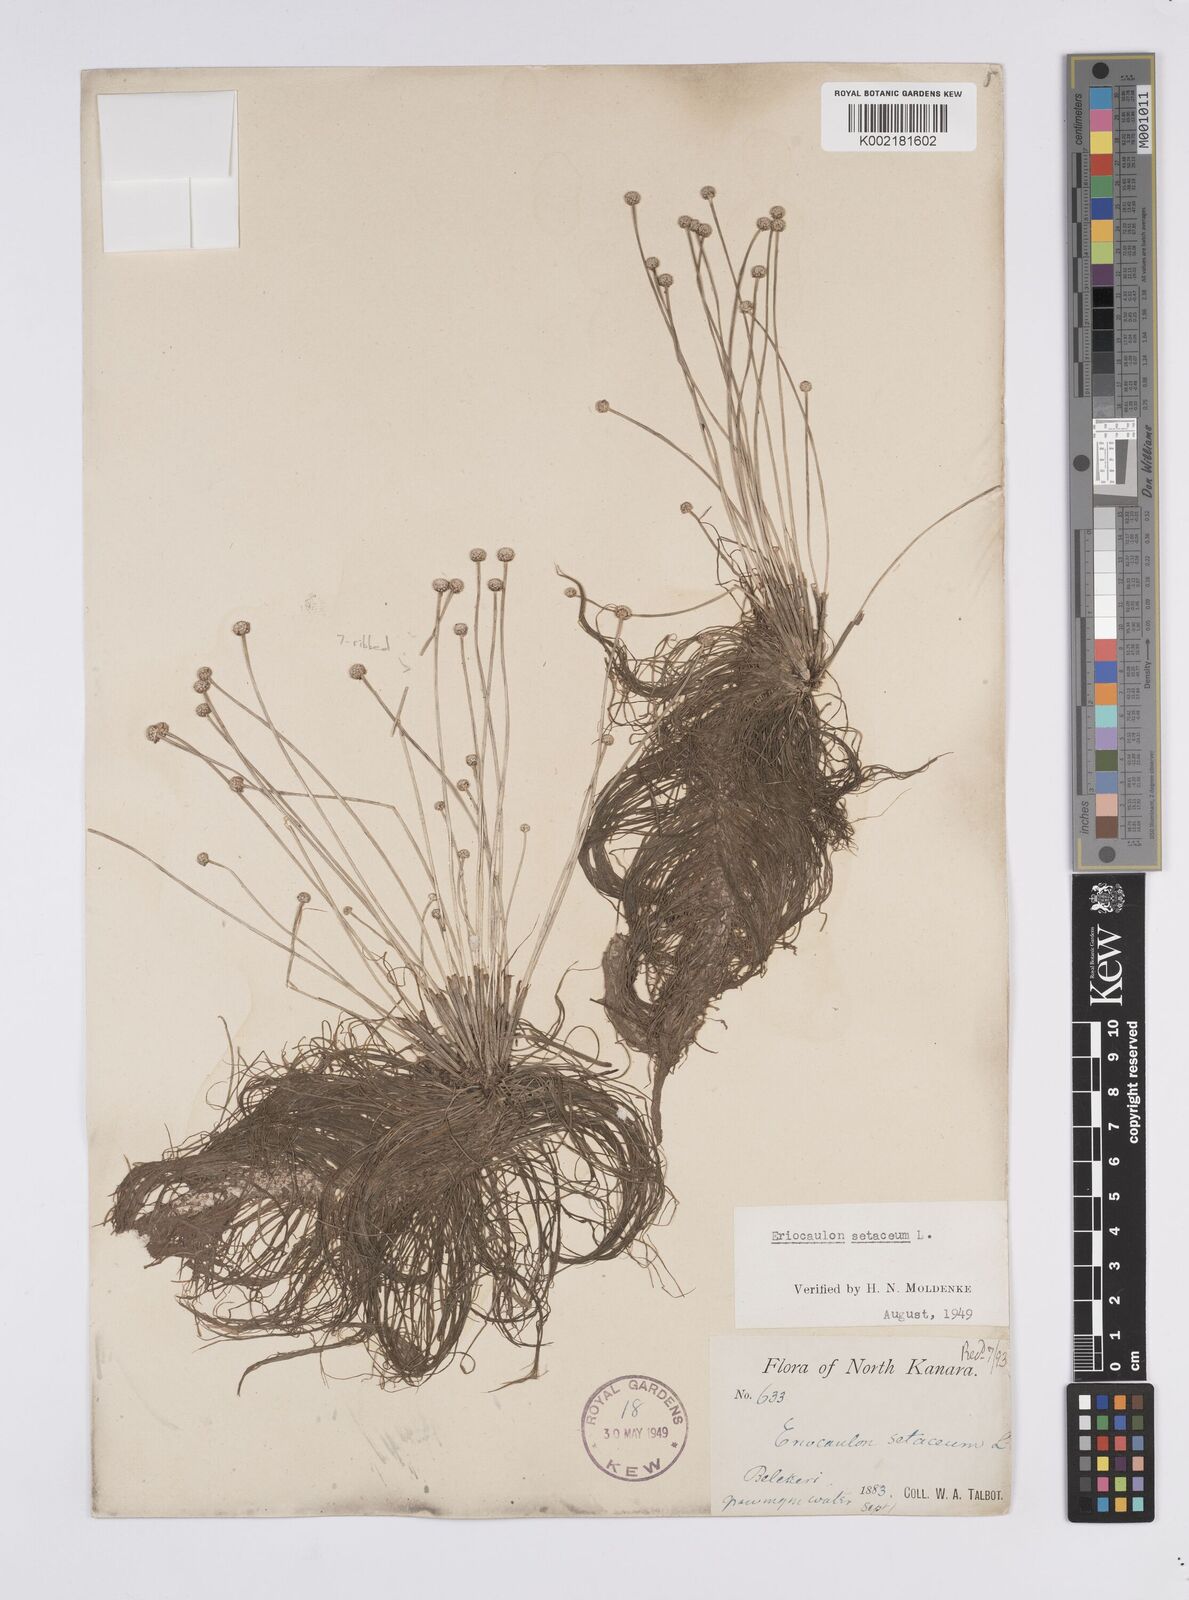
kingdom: Plantae
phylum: Tracheophyta
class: Liliopsida
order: Poales
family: Eriocaulaceae
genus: Eriocaulon
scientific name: Eriocaulon setaceum
